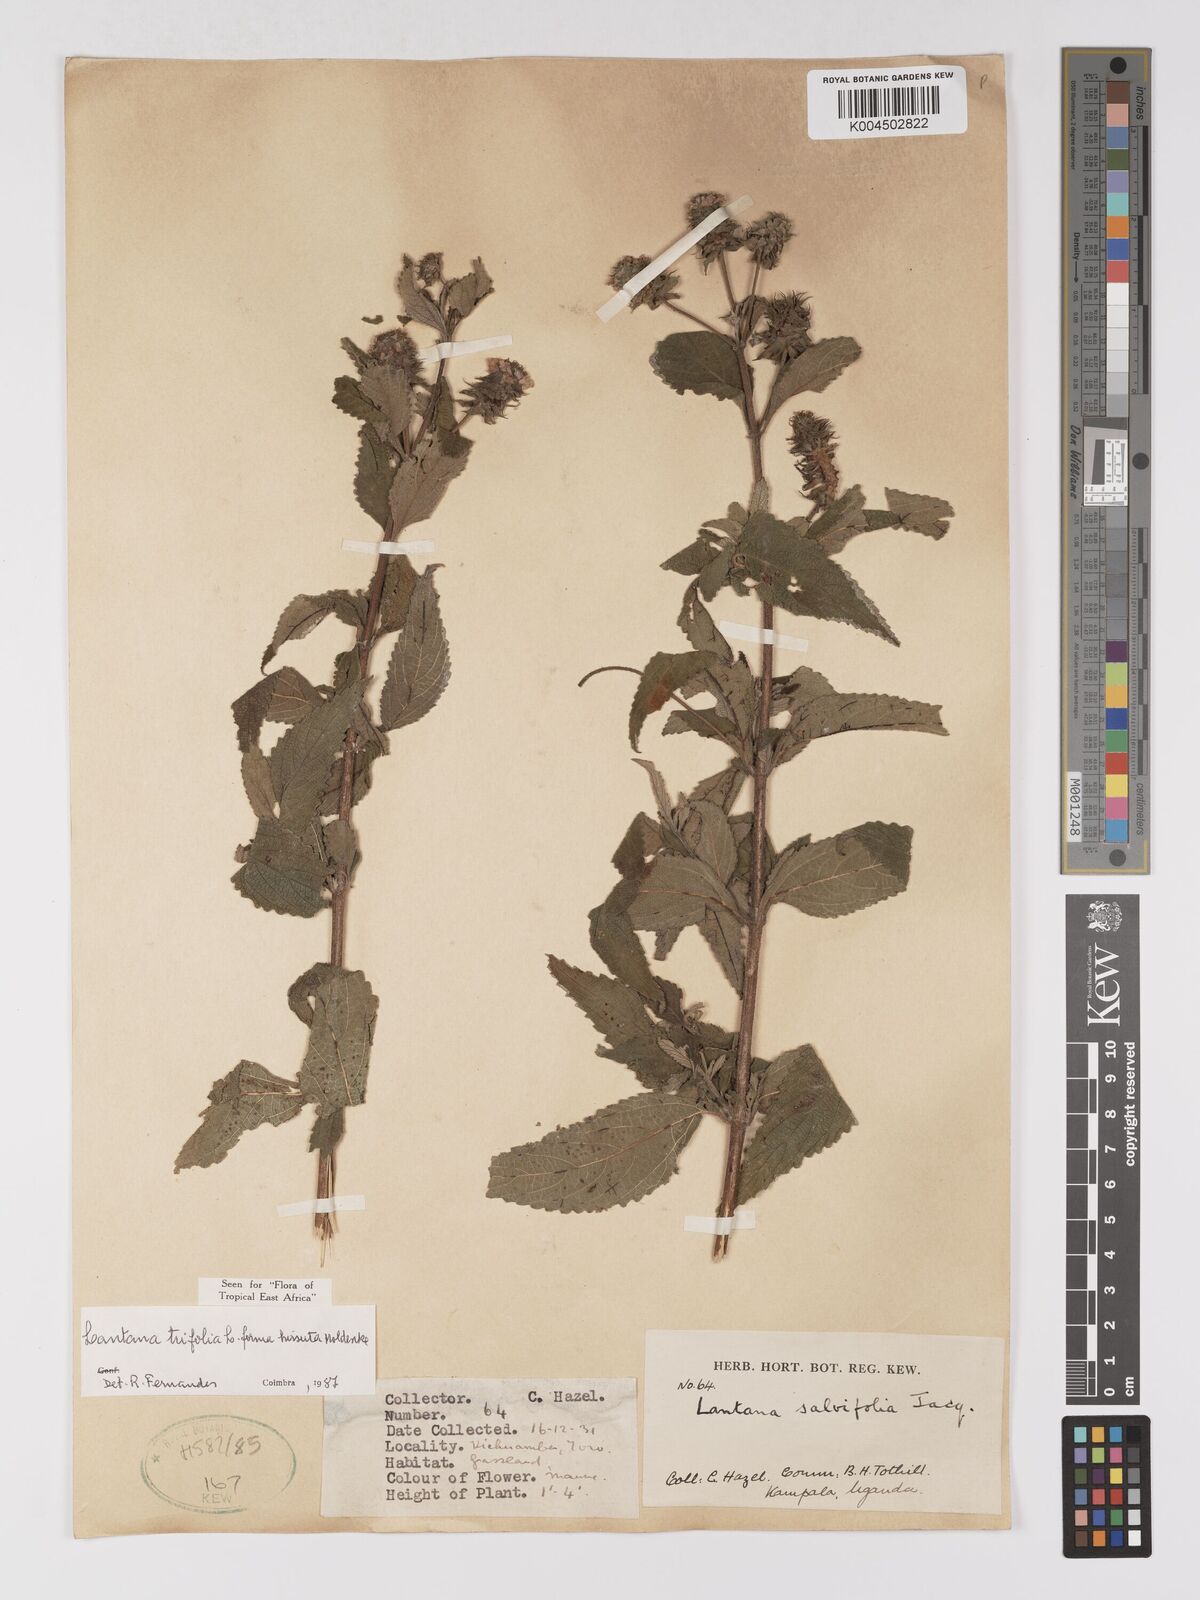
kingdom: Plantae
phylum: Tracheophyta
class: Magnoliopsida
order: Lamiales
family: Verbenaceae
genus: Lantana
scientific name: Lantana trifolia
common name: Sweet-sage
